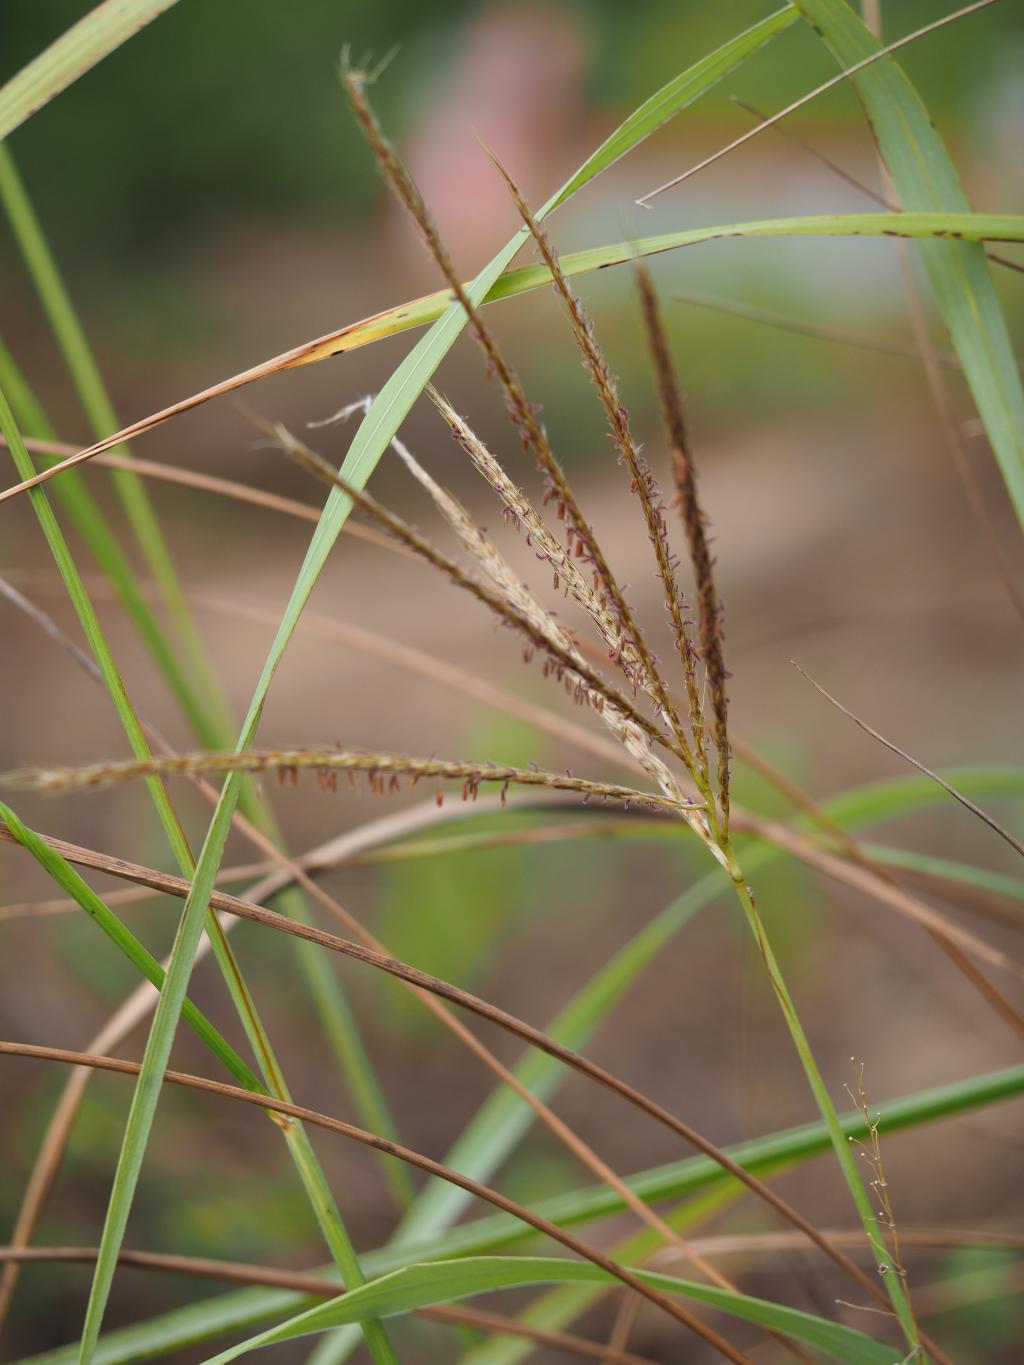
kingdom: Plantae
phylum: Tracheophyta
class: Liliopsida
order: Poales
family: Poaceae
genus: Pseudopogonatherum
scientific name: Pseudopogonatherum quadrinerve
